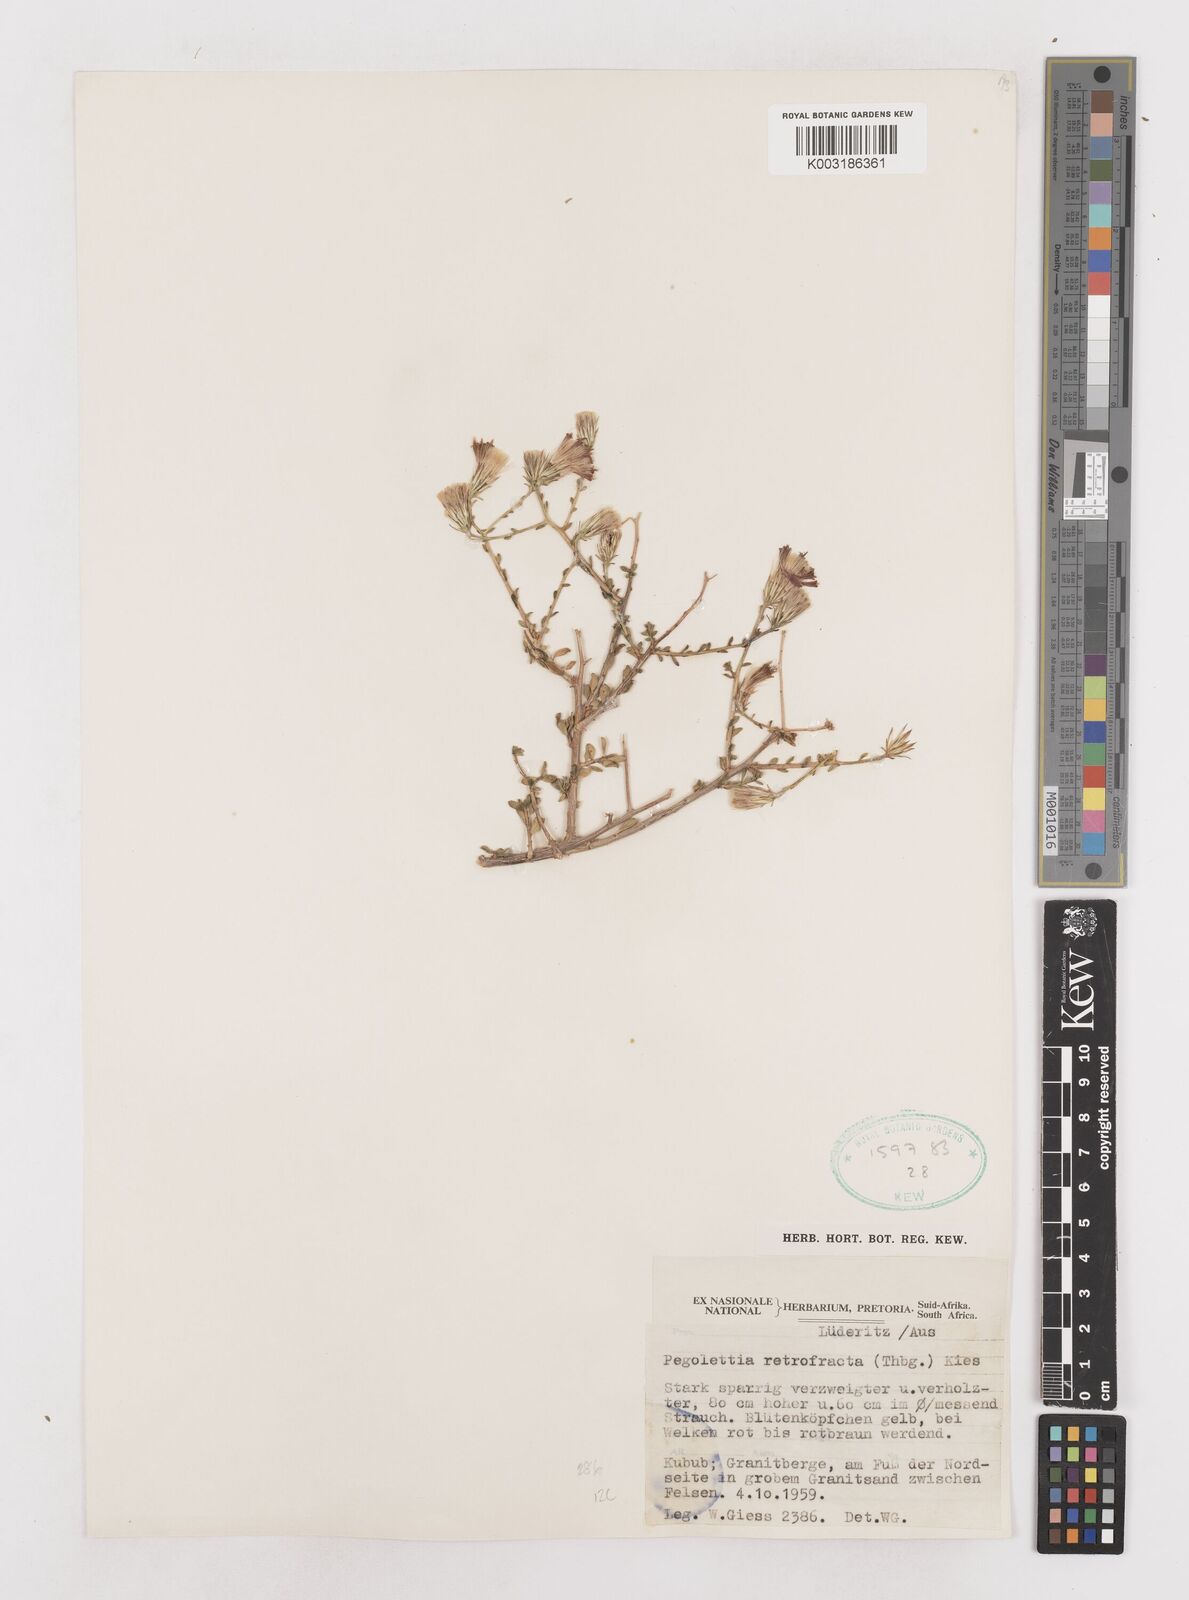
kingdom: Plantae
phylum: Tracheophyta
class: Magnoliopsida
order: Asterales
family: Asteraceae
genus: Pegolettia
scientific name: Pegolettia retrofracta
